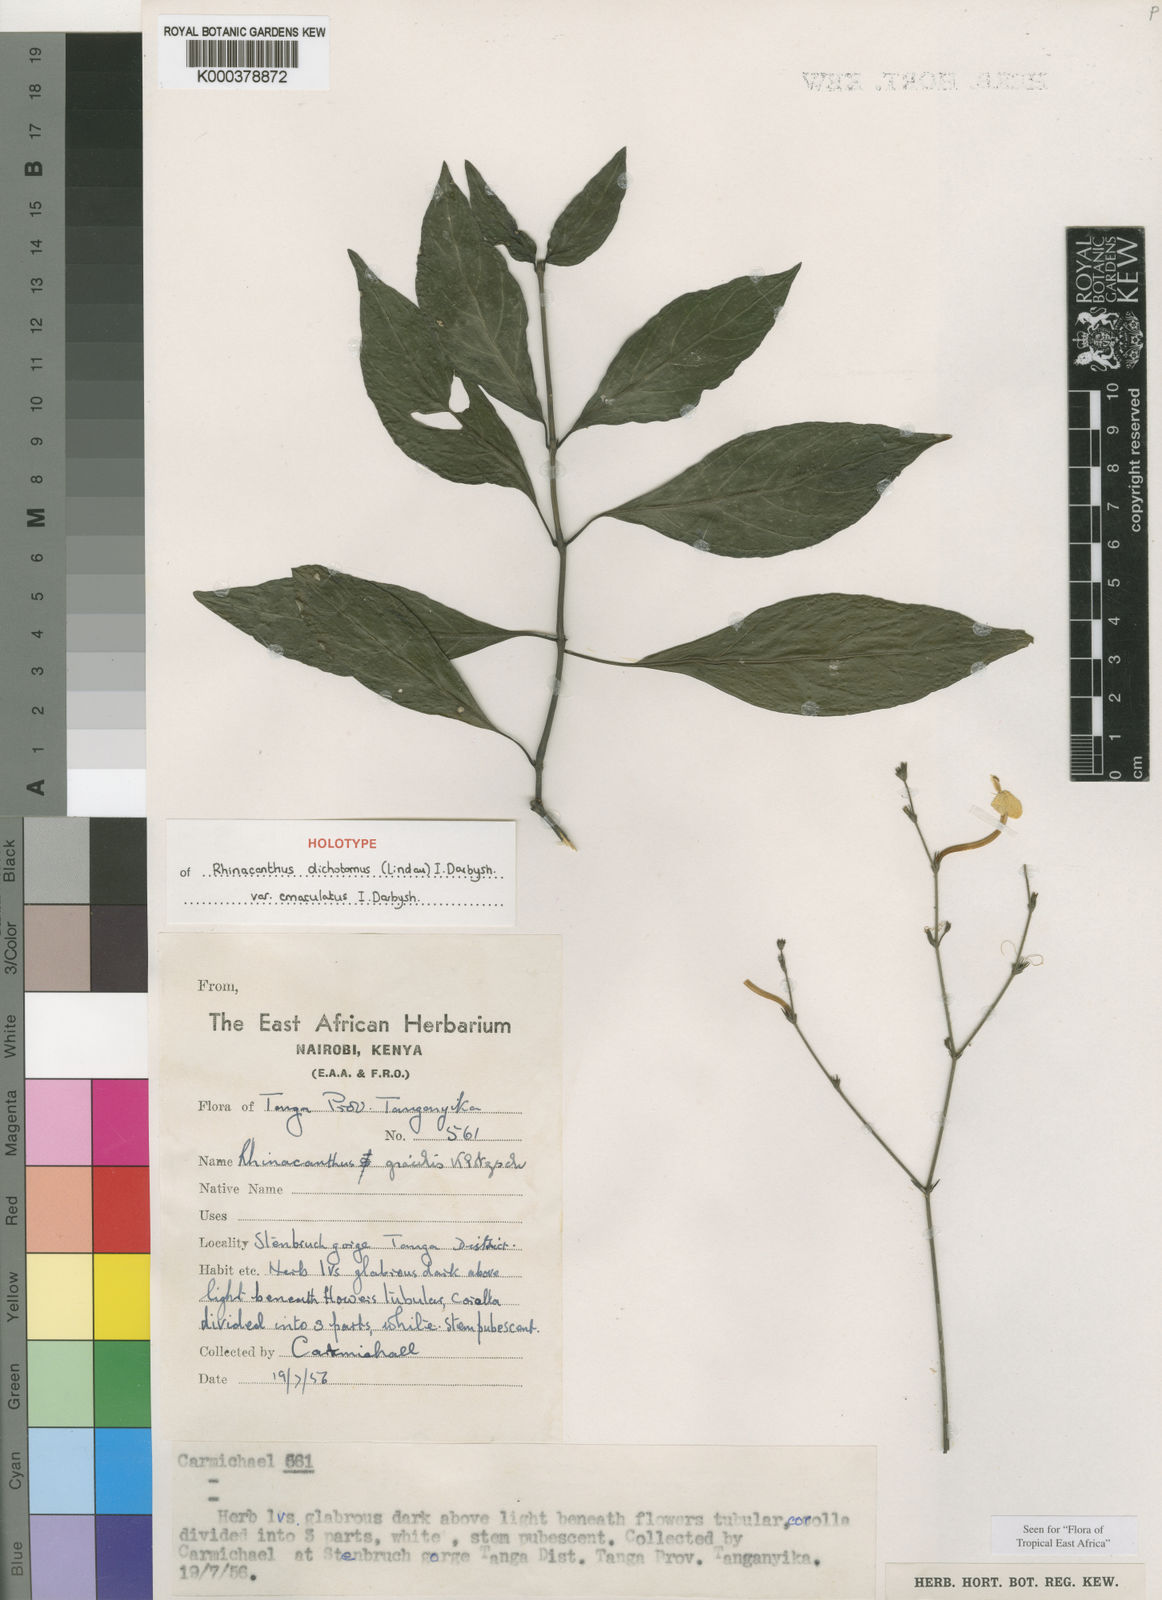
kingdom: Plantae
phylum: Tracheophyta
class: Magnoliopsida
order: Lamiales
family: Acanthaceae
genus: Rhinacanthus
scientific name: Rhinacanthus dichotomus
